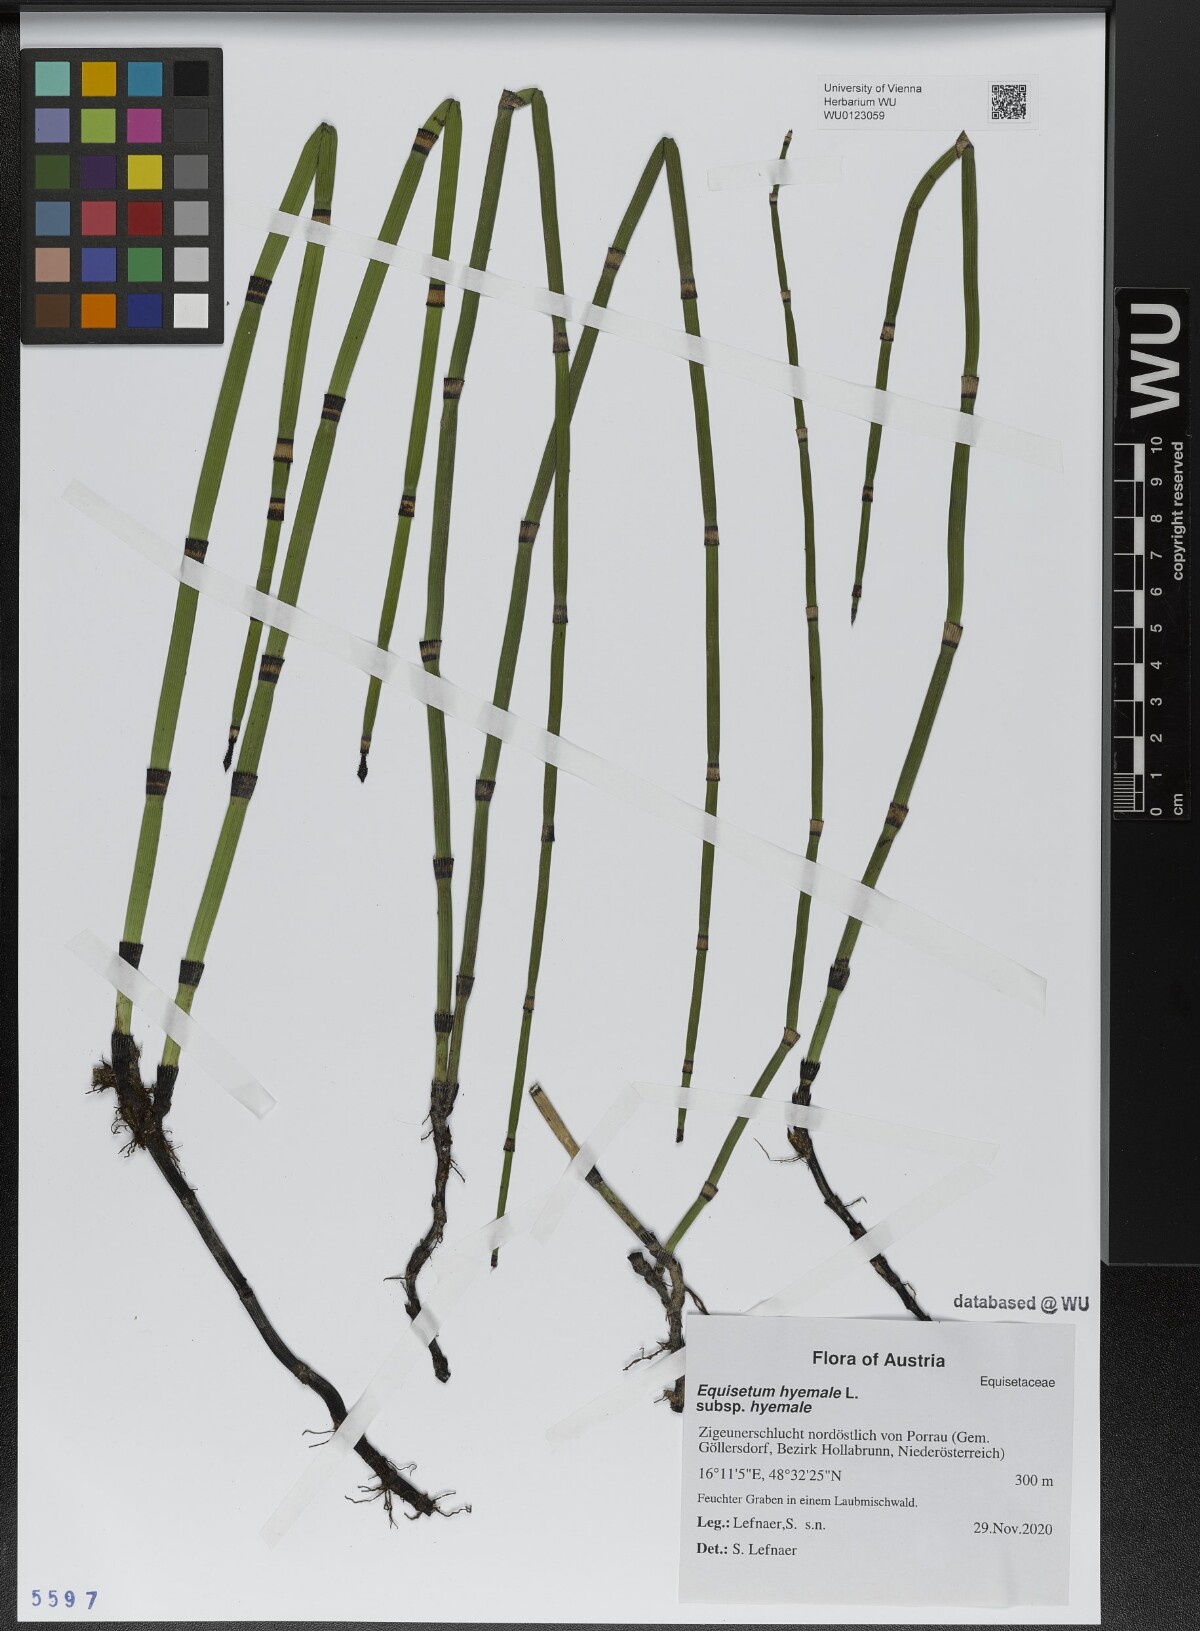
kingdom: Plantae
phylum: Tracheophyta
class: Polypodiopsida
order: Equisetales
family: Equisetaceae
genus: Equisetum
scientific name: Equisetum hyemale
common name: Rough horsetail
